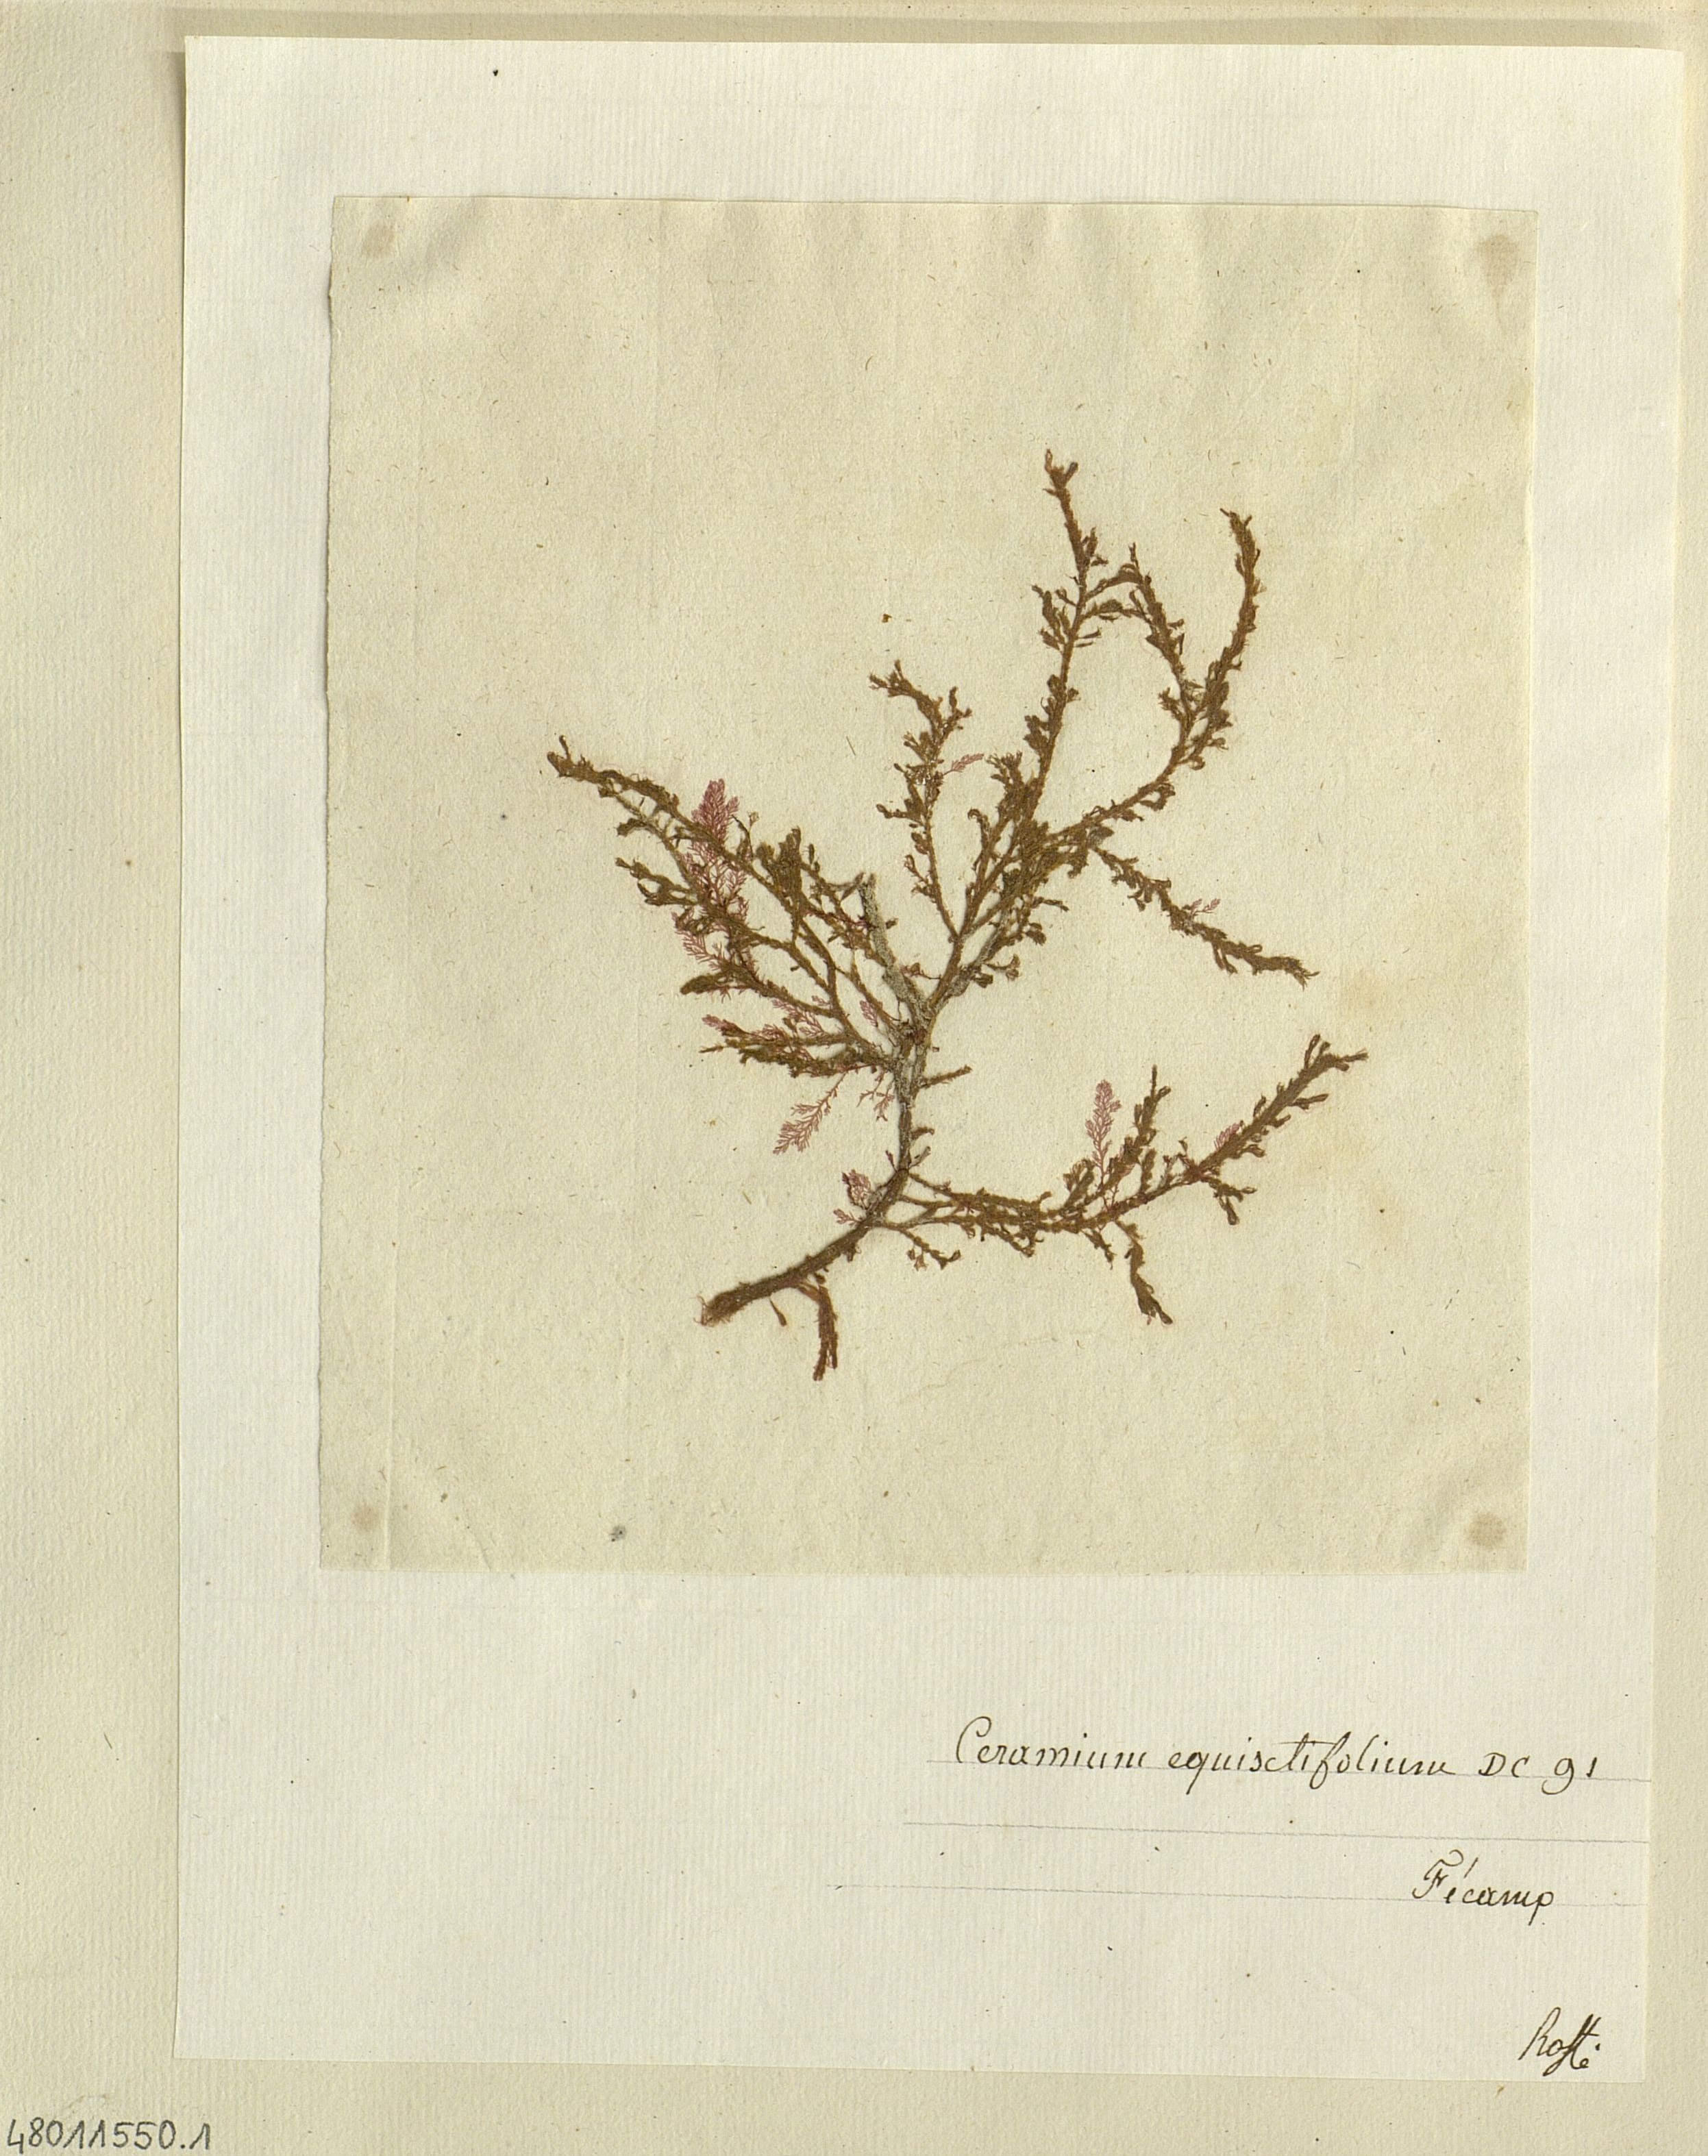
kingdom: Plantae
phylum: Rhodophyta
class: Florideophyceae
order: Ceramiales
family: Ceramiaceae
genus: Ceramium
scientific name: Ceramium
